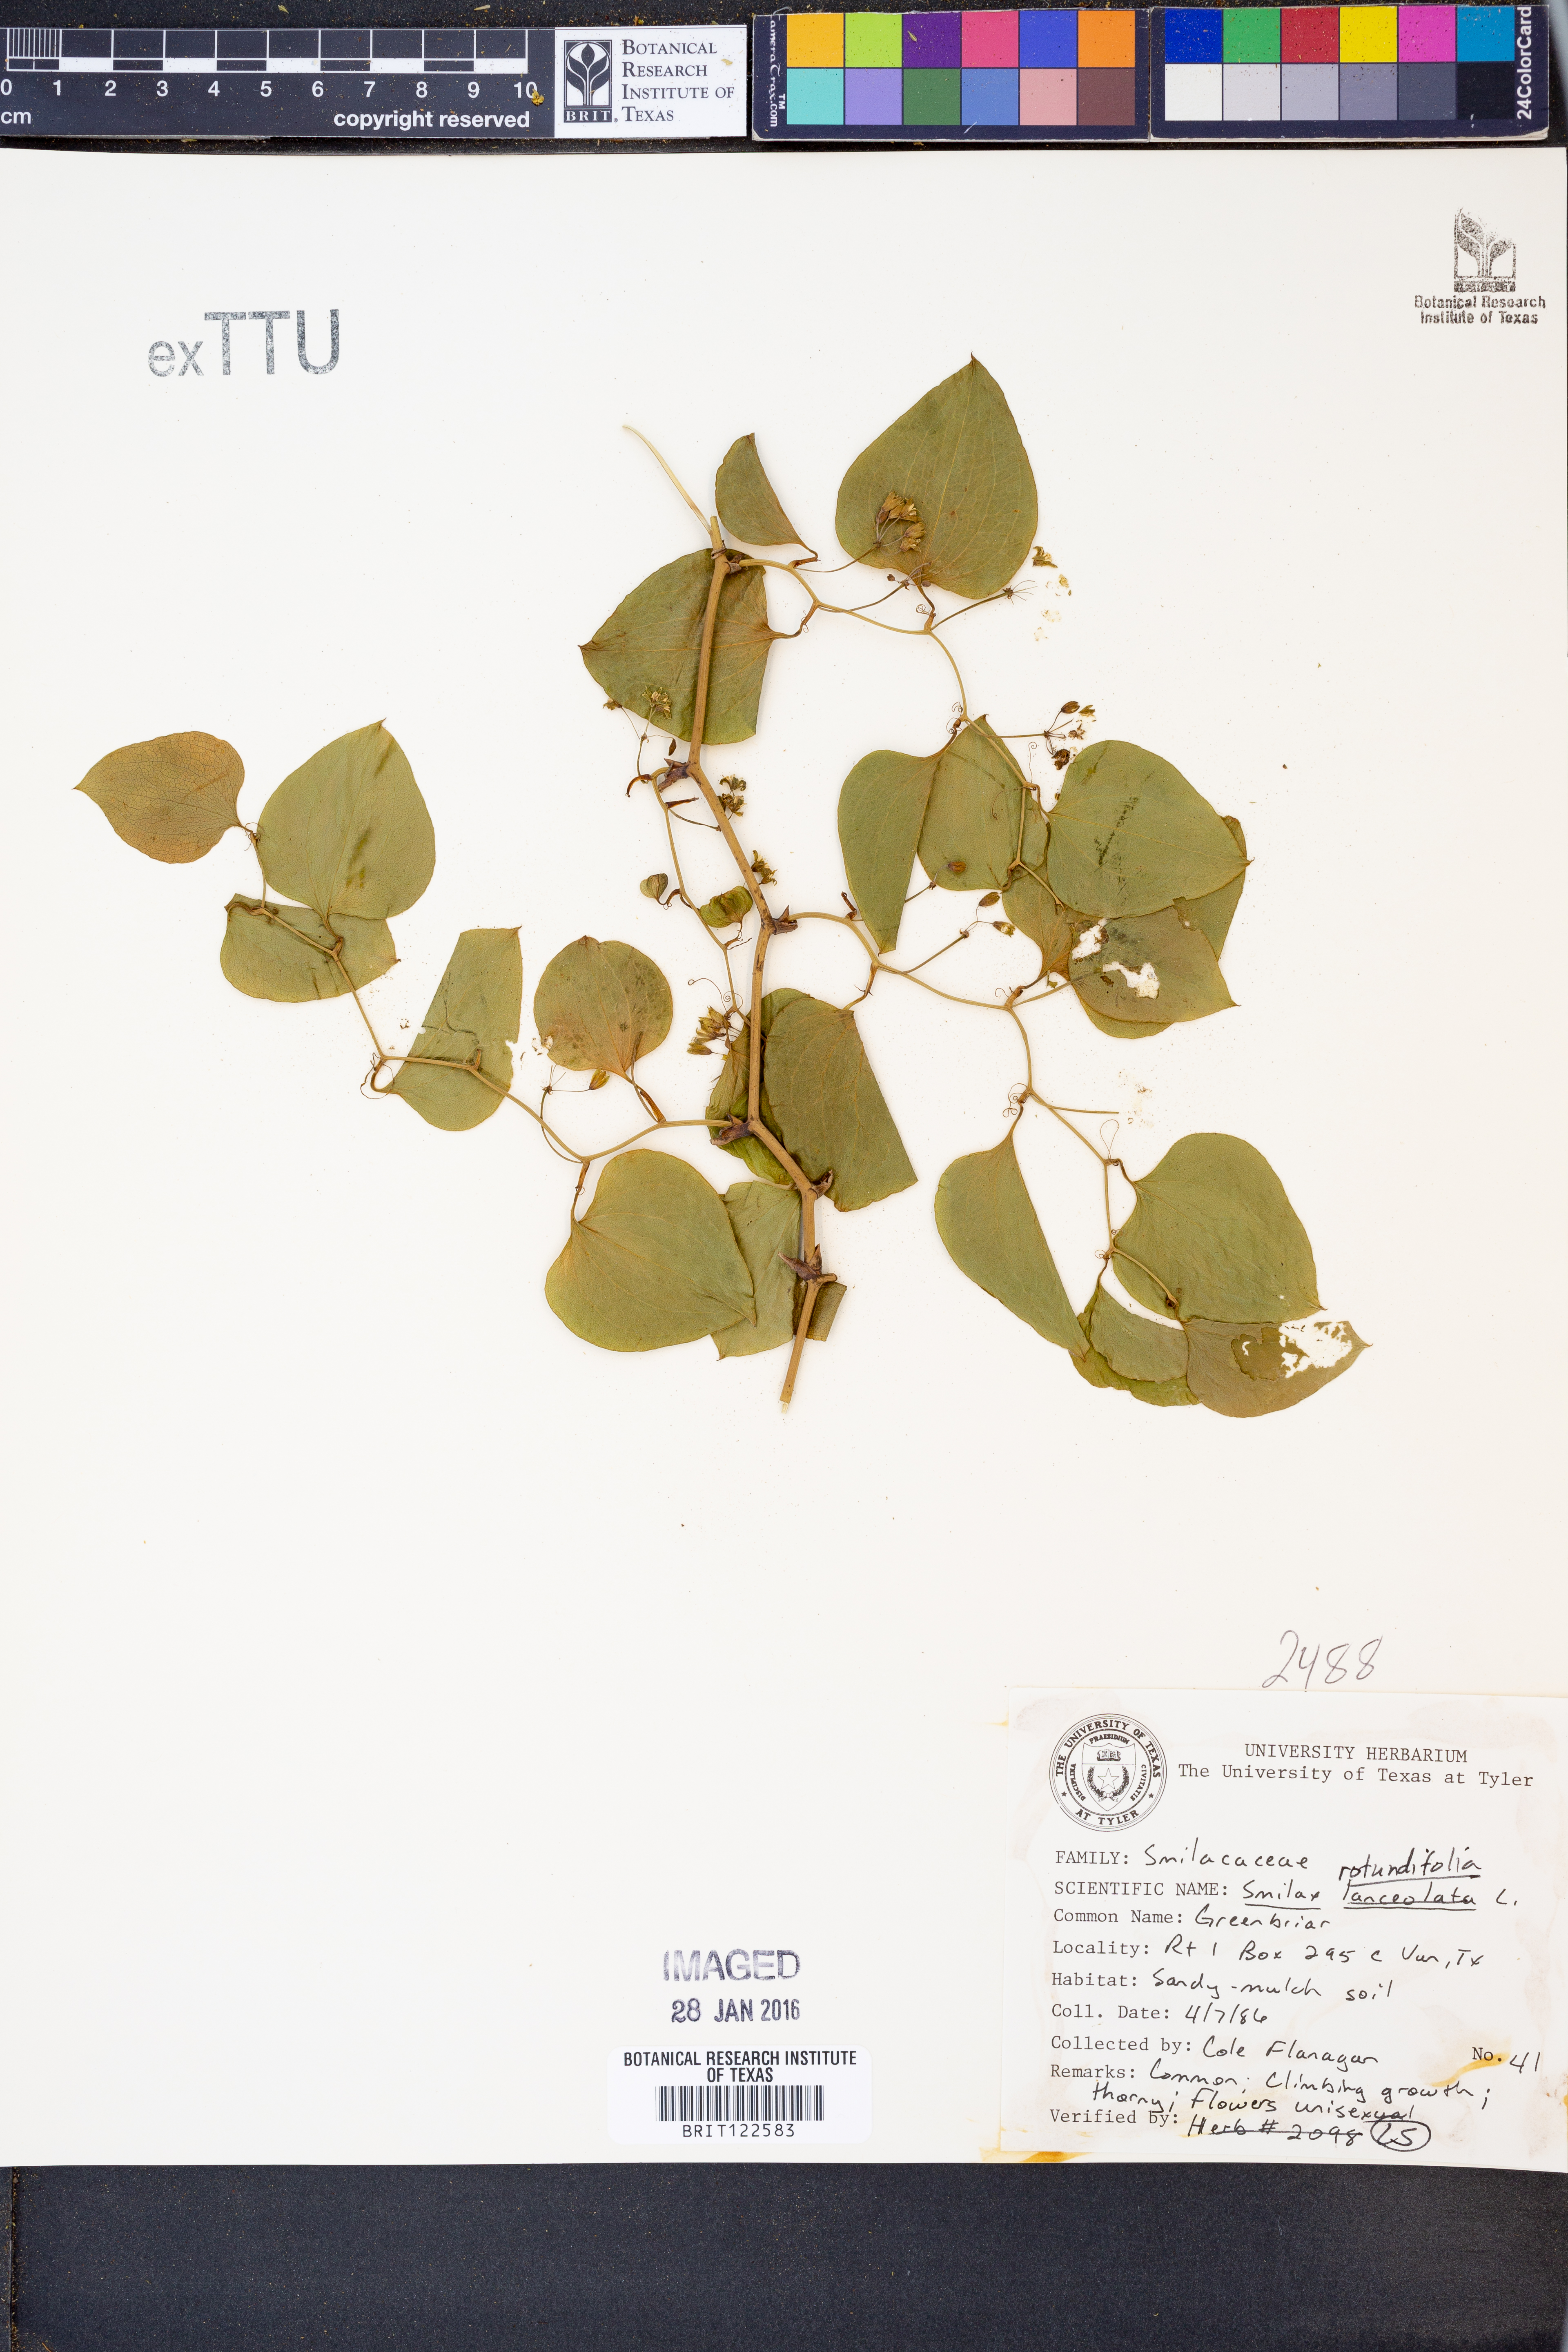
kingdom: Plantae
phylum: Tracheophyta
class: Liliopsida
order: Liliales
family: Smilacaceae
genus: Smilax
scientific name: Smilax rotundifolia
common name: Bullbriar
